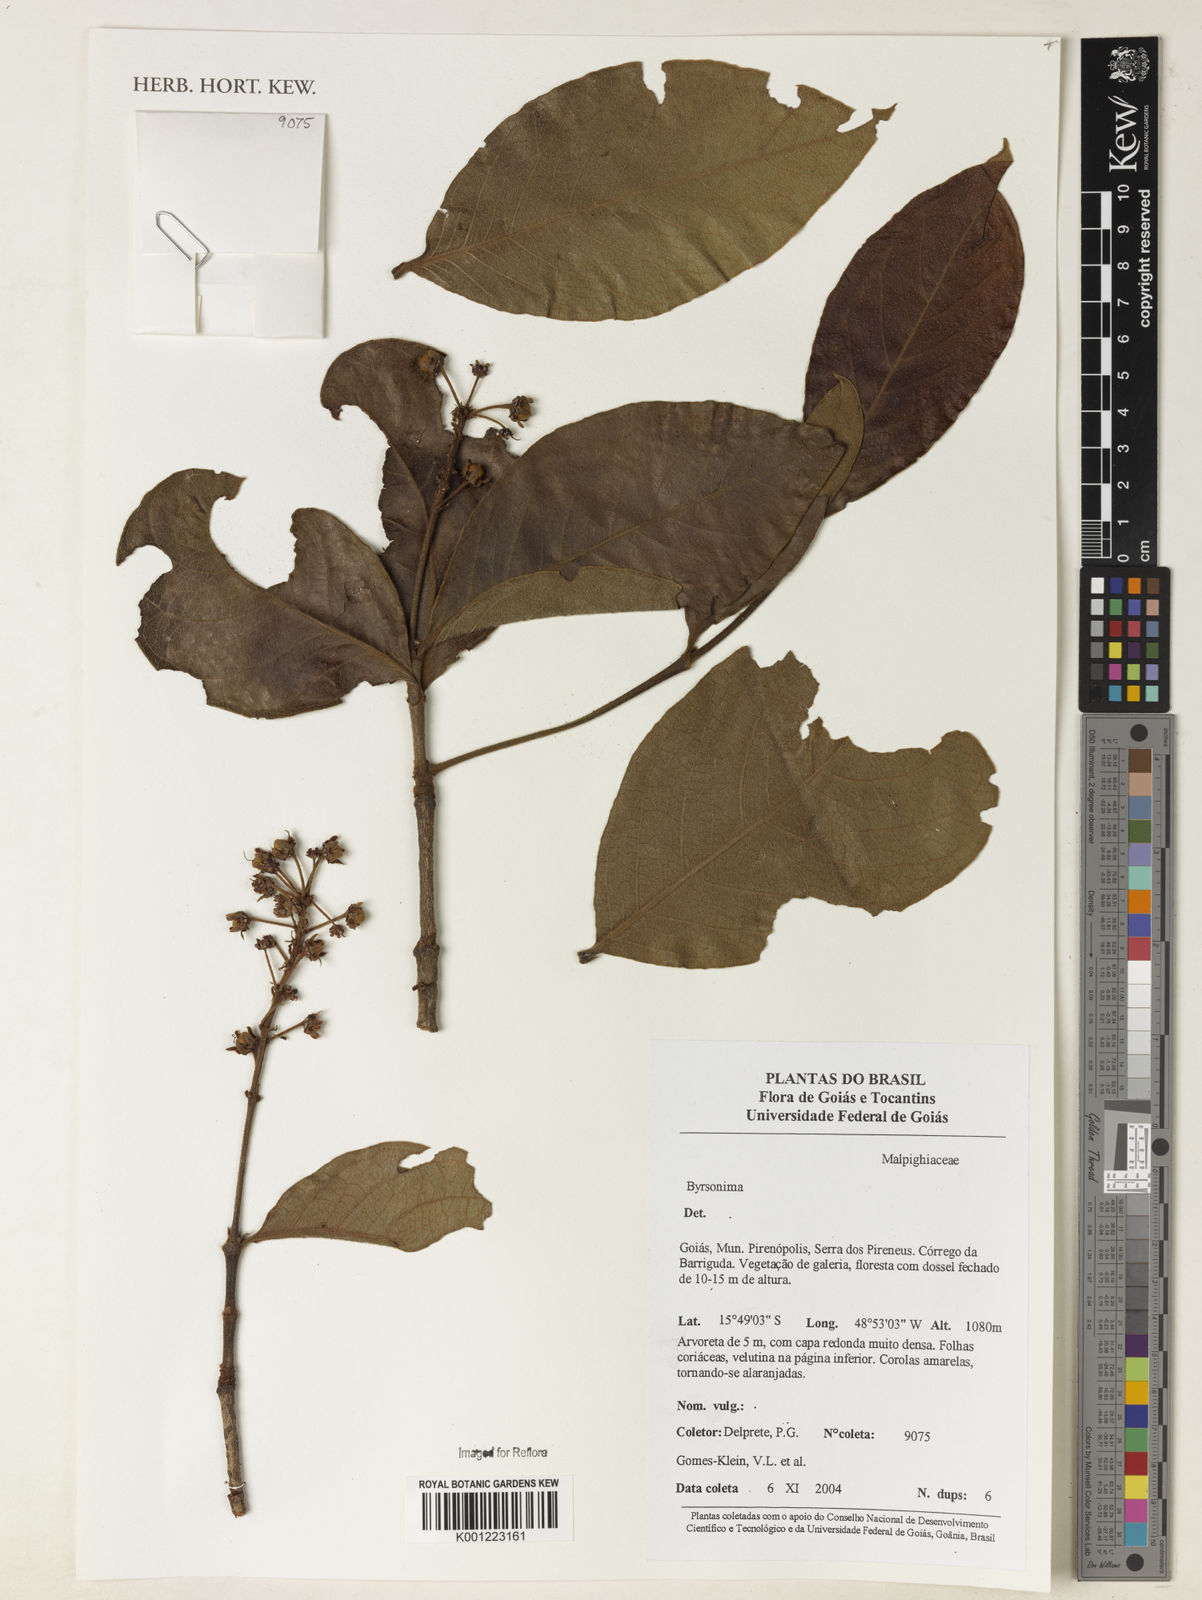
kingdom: Plantae
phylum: Tracheophyta
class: Magnoliopsida
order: Malpighiales
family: Malpighiaceae
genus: Byrsonima
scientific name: Byrsonima
